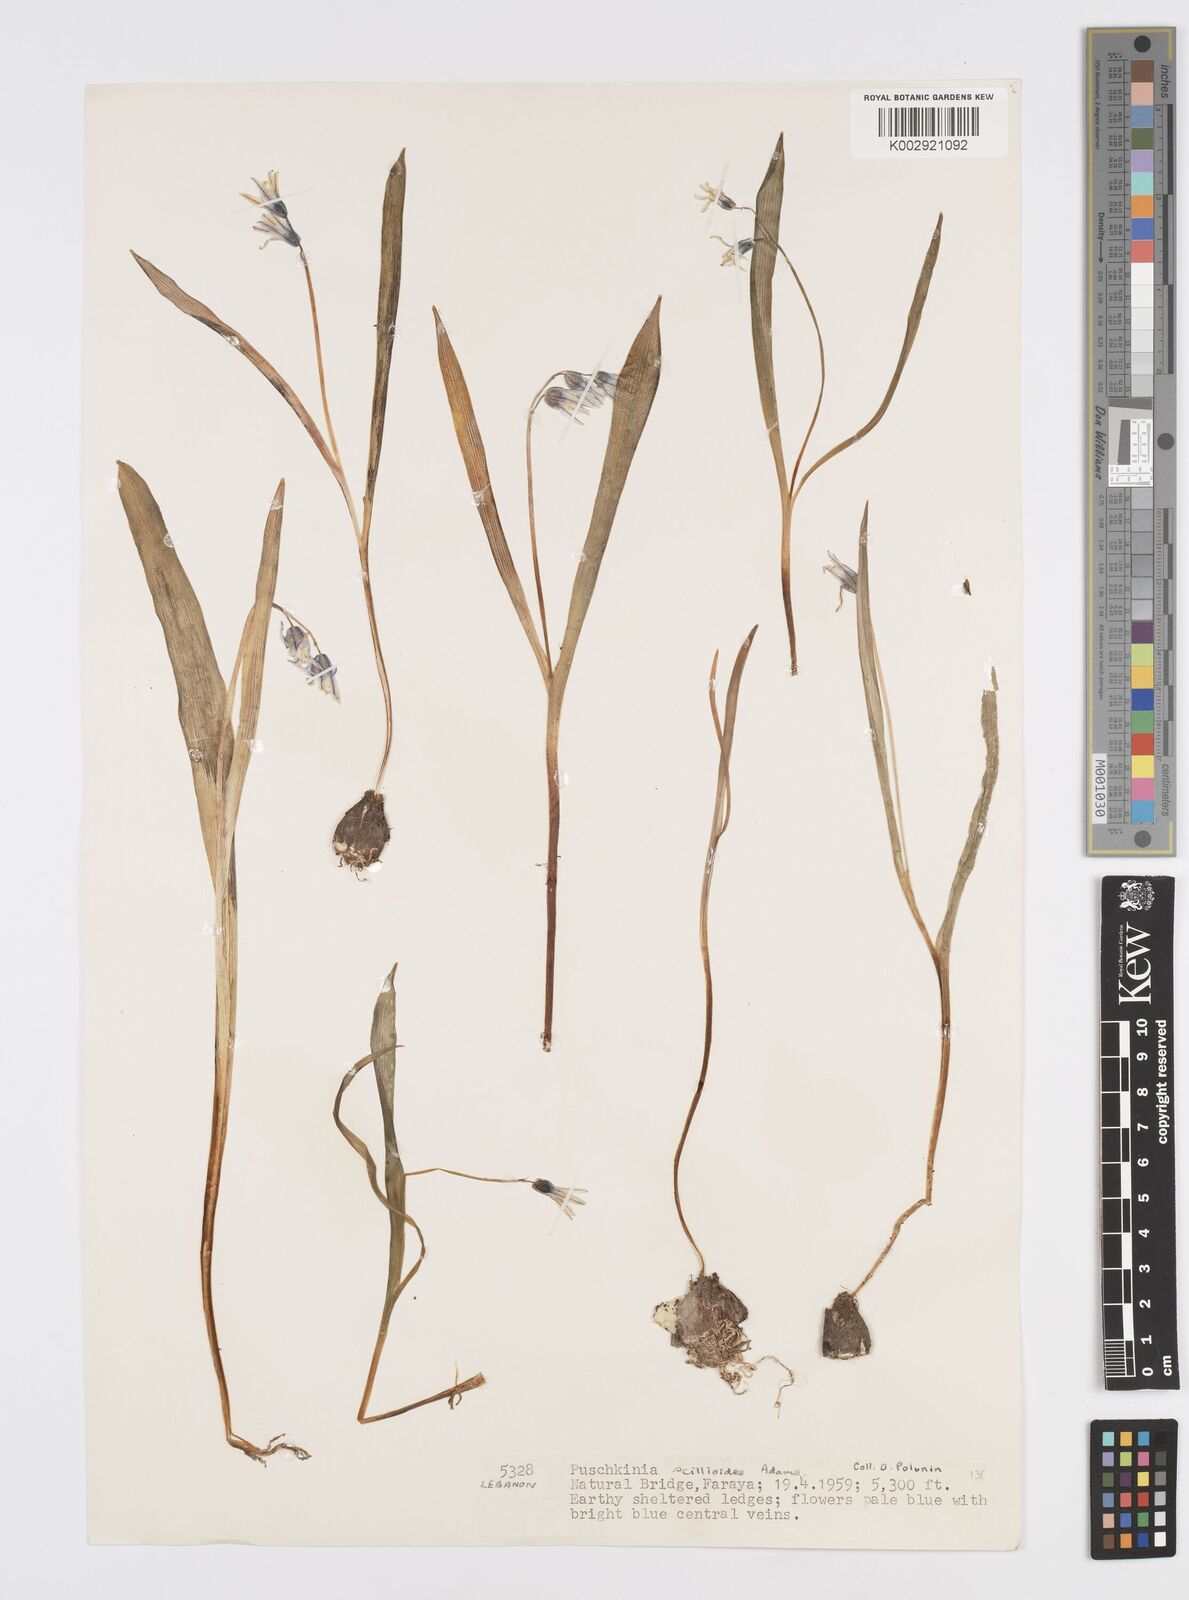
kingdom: Plantae
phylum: Tracheophyta
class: Liliopsida
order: Asparagales
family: Asparagaceae
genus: Puschkinia
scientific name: Puschkinia scilloides
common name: Striped squill
